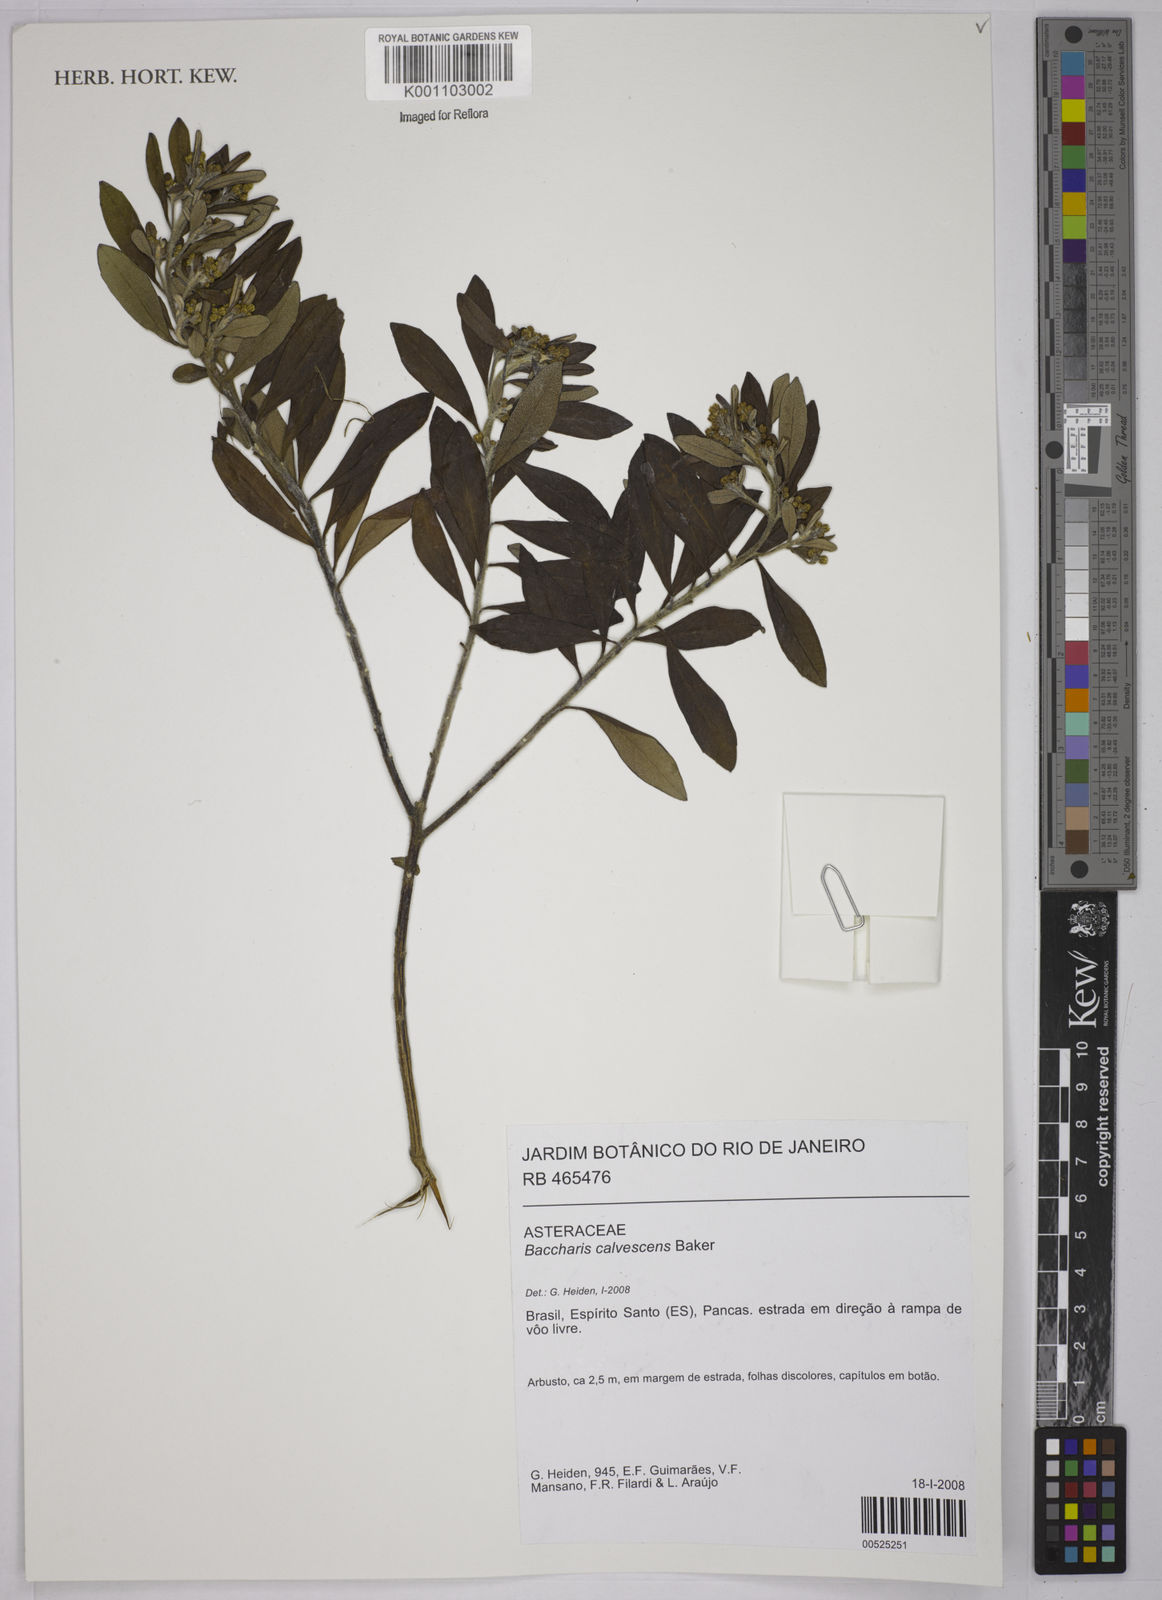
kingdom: Plantae
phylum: Tracheophyta
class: Magnoliopsida
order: Asterales
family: Asteraceae
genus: Baccharis
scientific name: Baccharis calvescens
